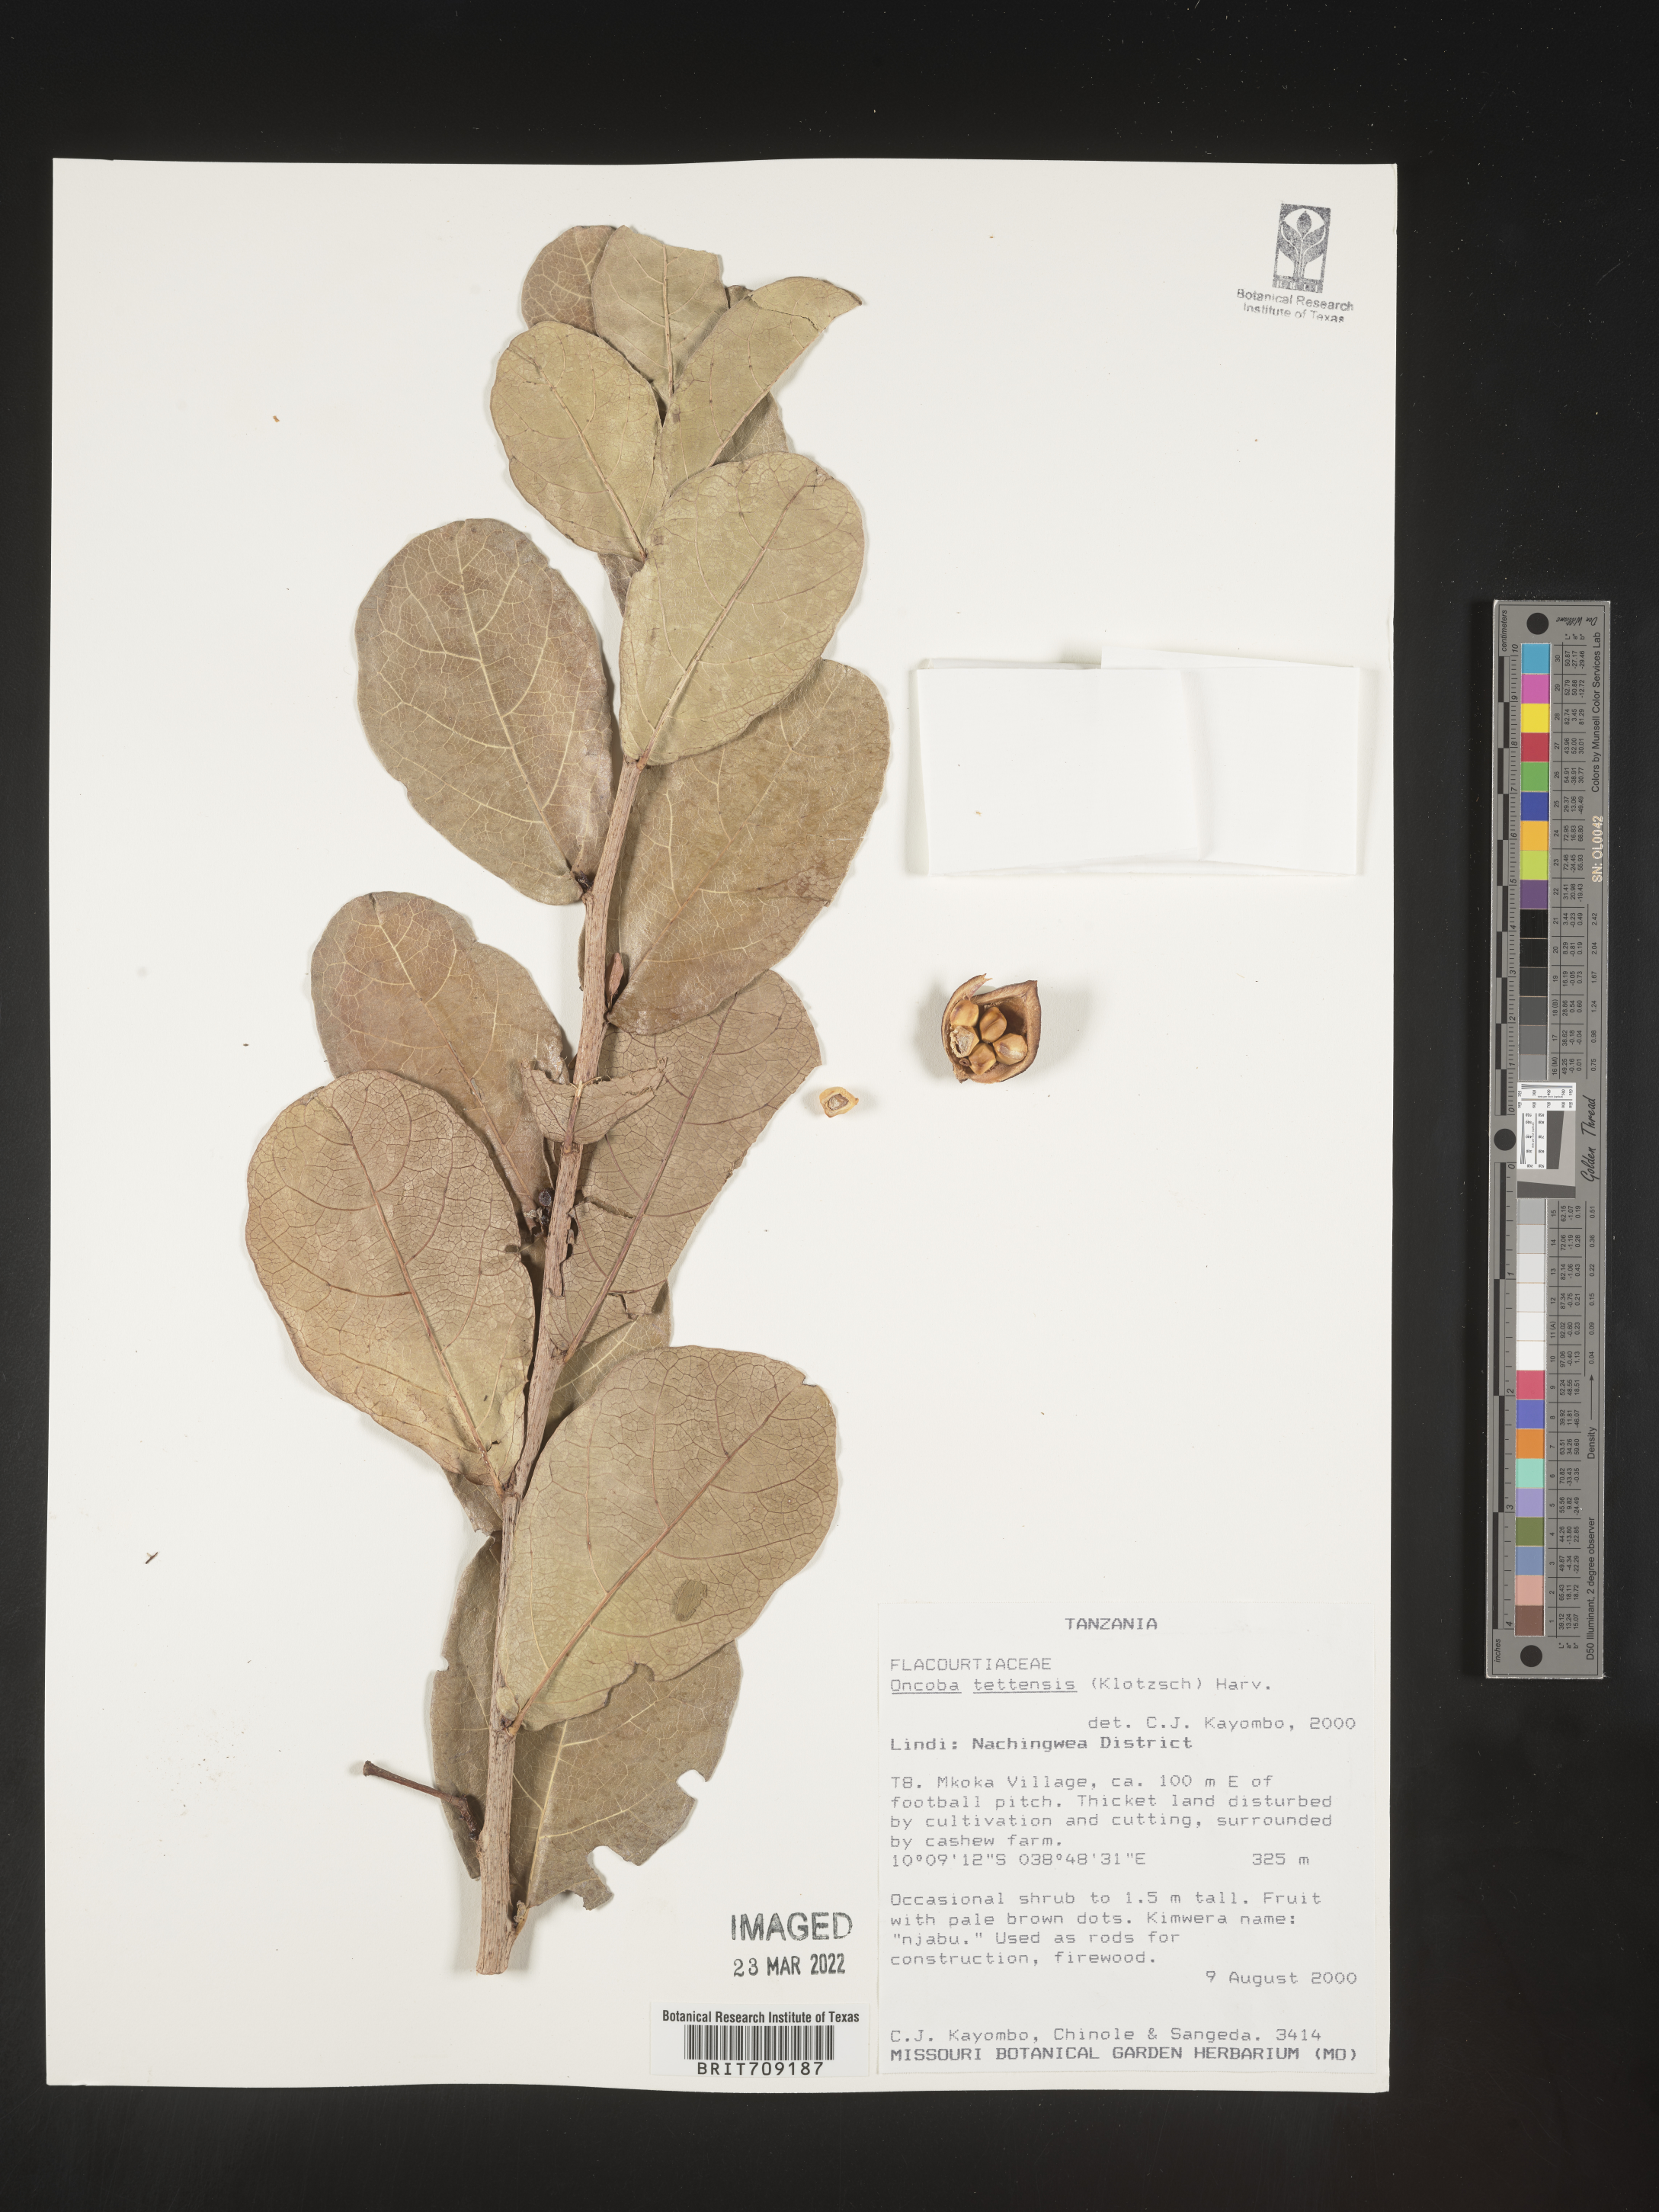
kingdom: Plantae
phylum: Tracheophyta
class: Magnoliopsida
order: Malpighiales
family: Salicaceae
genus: Oncoba
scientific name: Oncoba
